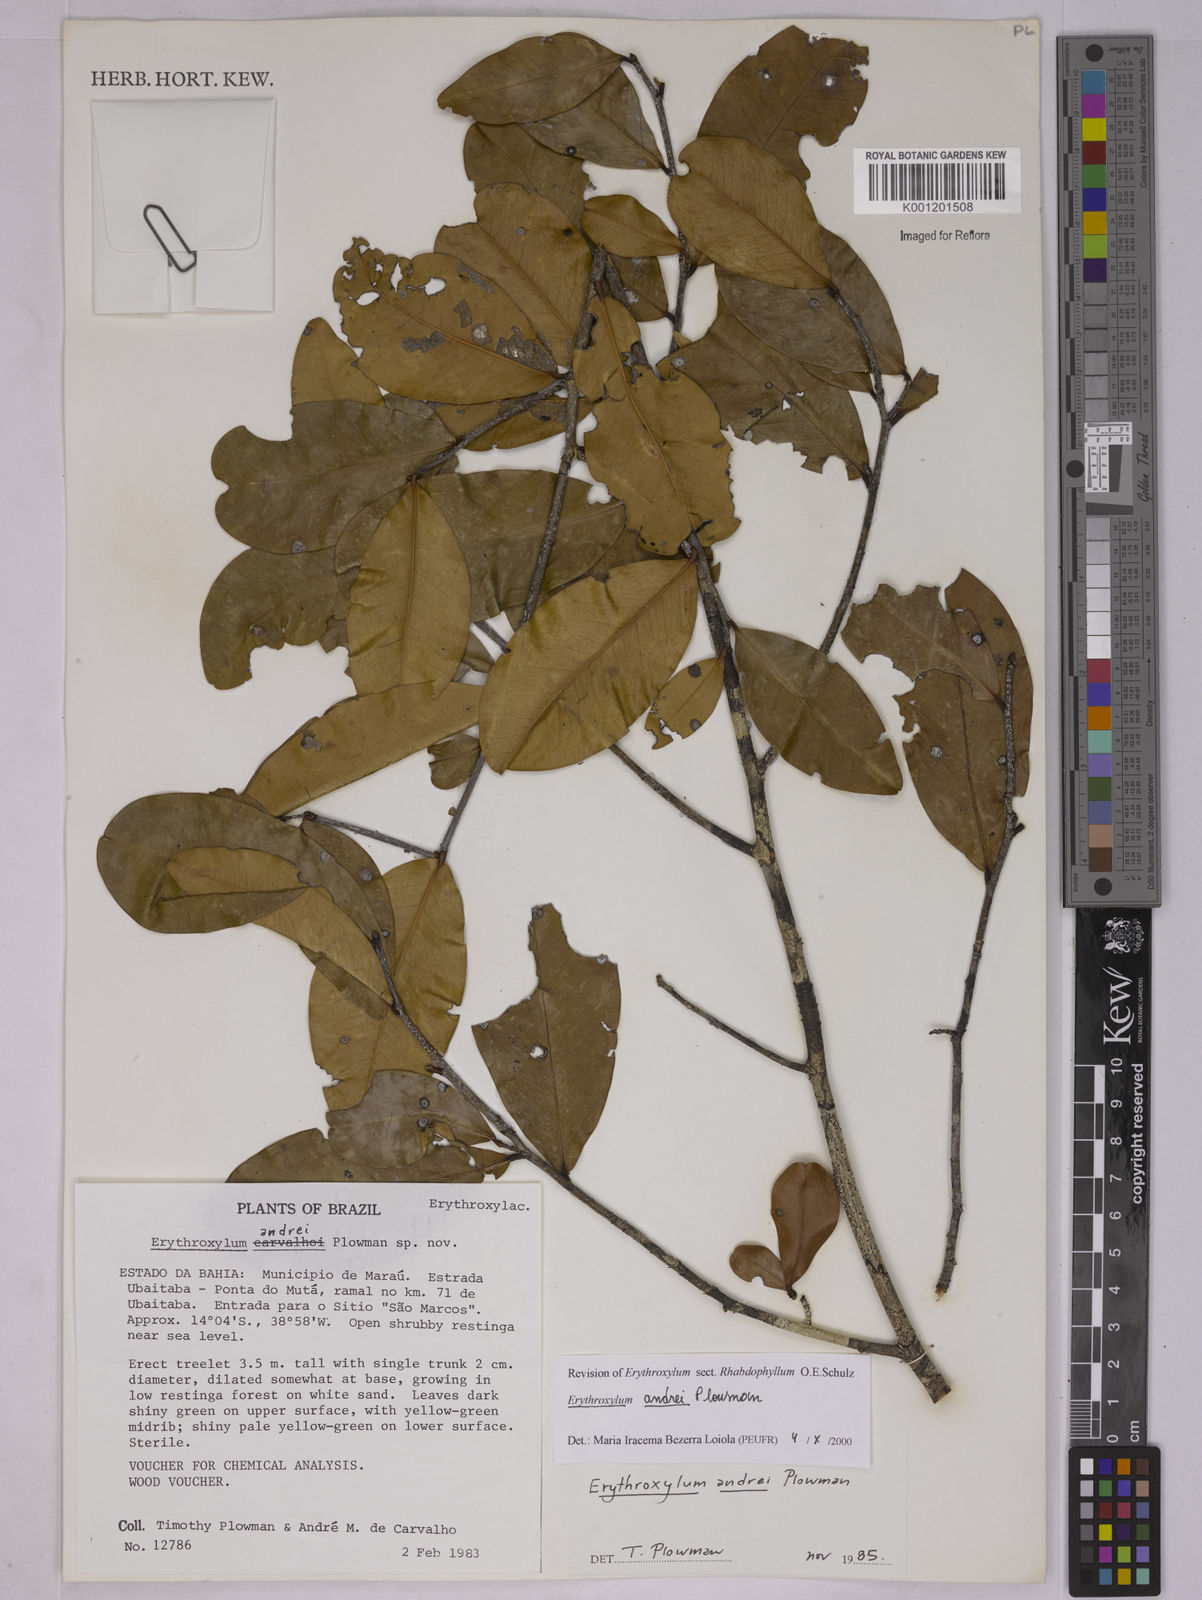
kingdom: Plantae
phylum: Tracheophyta
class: Magnoliopsida
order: Malpighiales
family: Erythroxylaceae
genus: Erythroxylum
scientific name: Erythroxylum andrei
